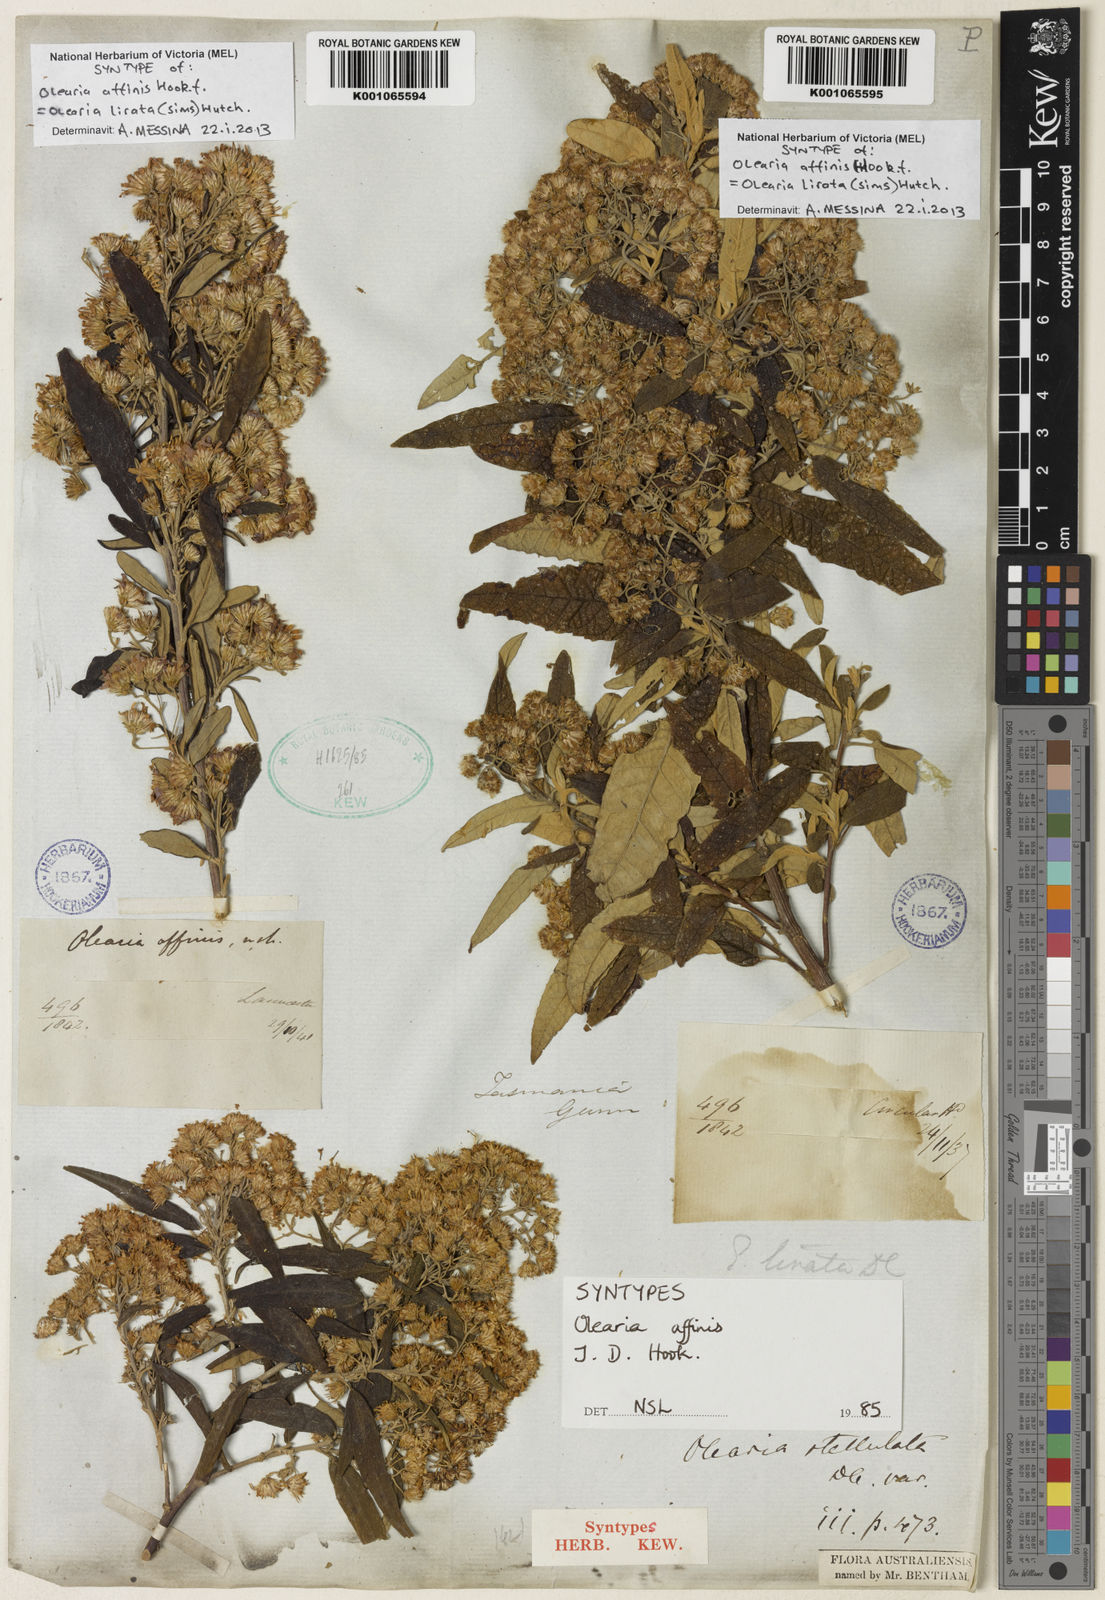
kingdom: Plantae
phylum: Tracheophyta
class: Magnoliopsida
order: Asterales
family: Asteraceae
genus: Olearia
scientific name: Olearia lirata
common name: Dusty daisybush
